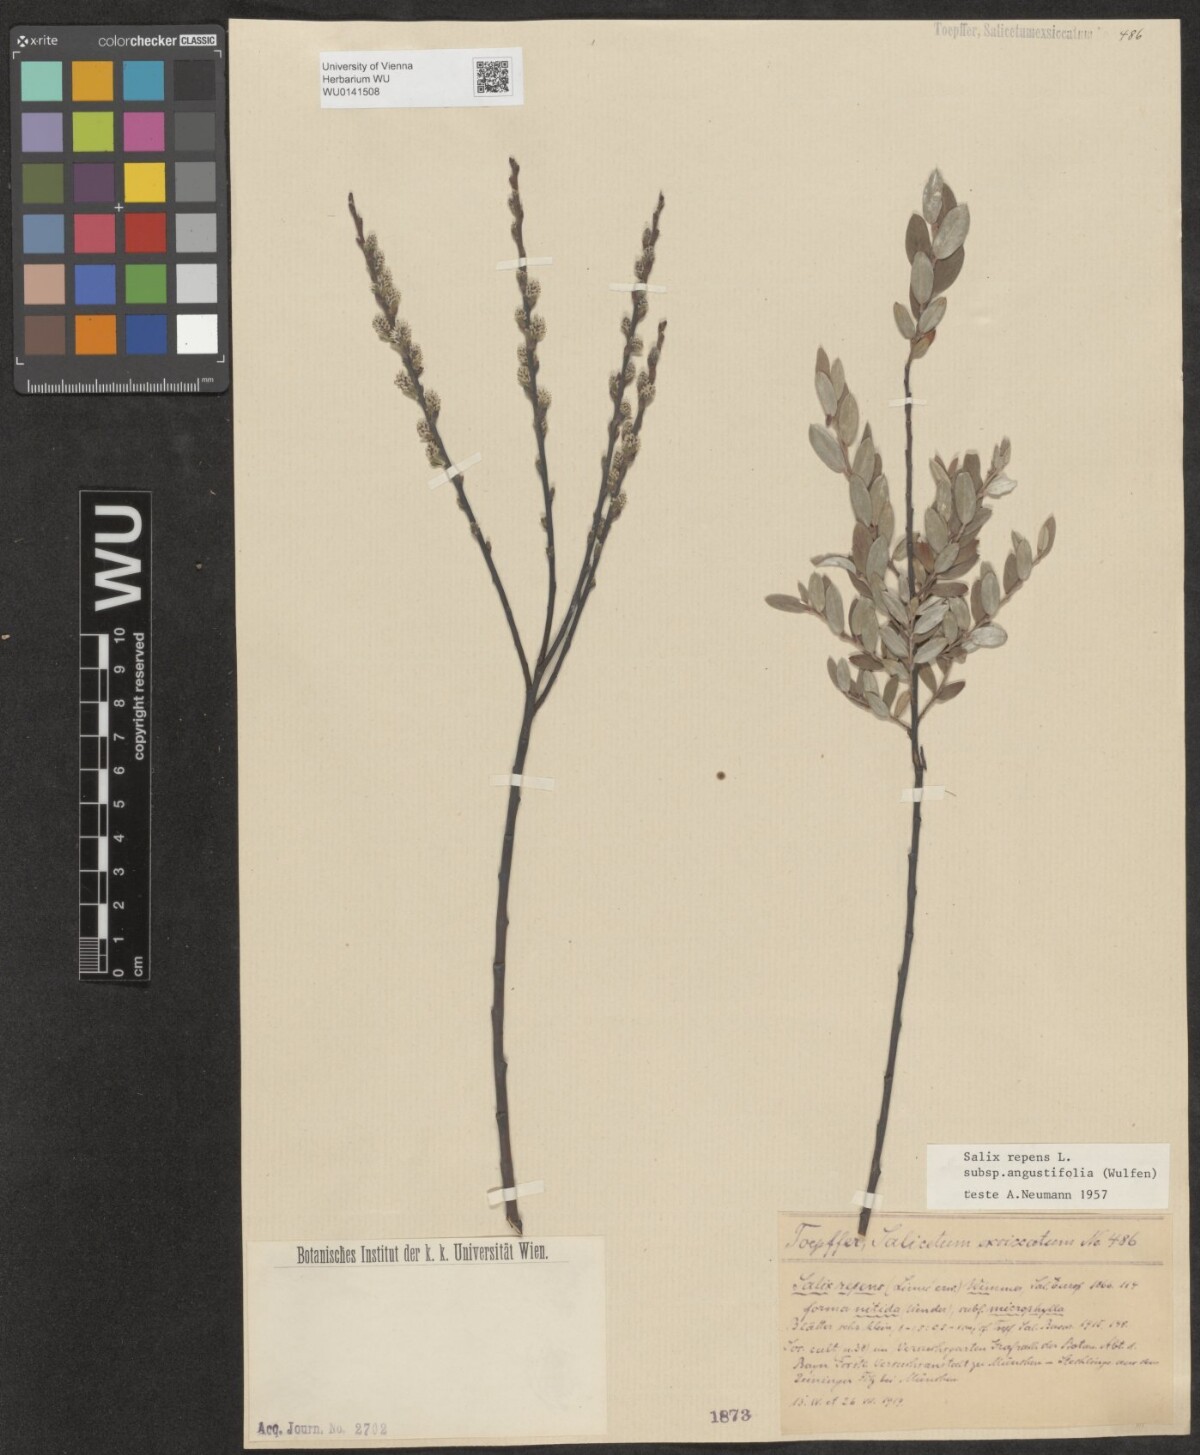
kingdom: Plantae
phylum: Tracheophyta
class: Magnoliopsida
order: Malpighiales
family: Salicaceae
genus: Salix
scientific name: Salix rosmarinifolia
